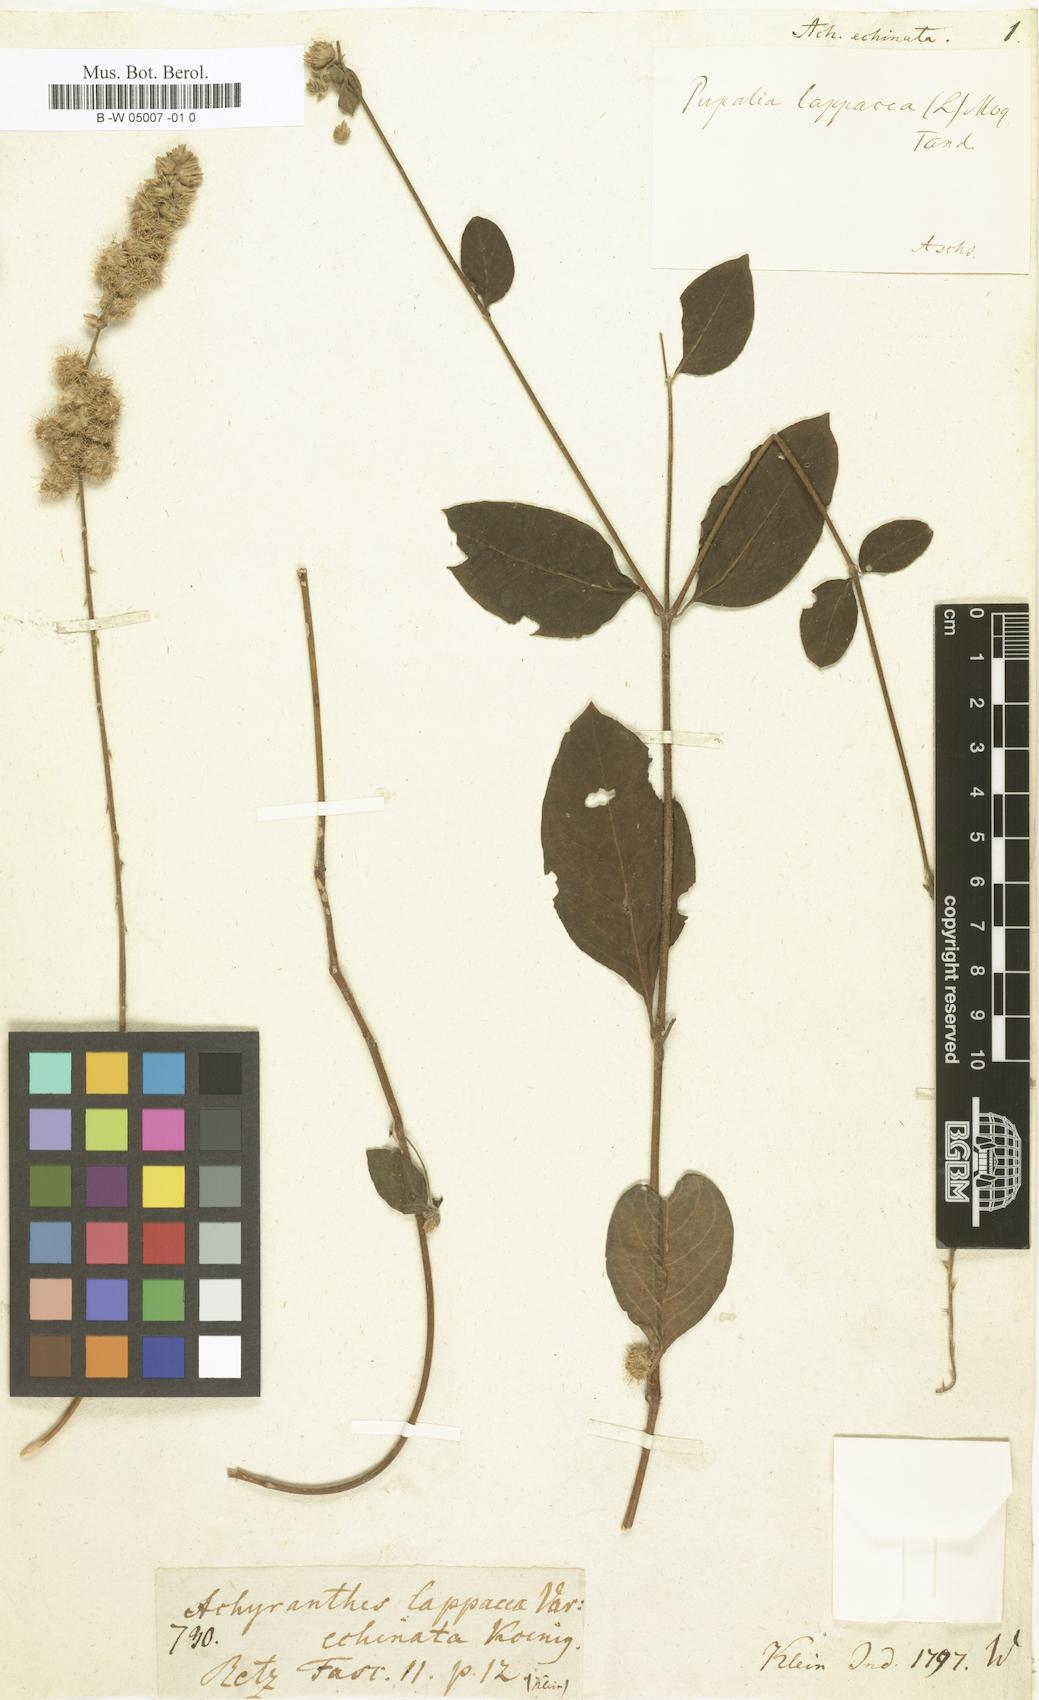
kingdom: Plantae
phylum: Tracheophyta
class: Magnoliopsida
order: Caryophyllales
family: Amaranthaceae
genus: Pupalia
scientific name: Pupalia lappacea
